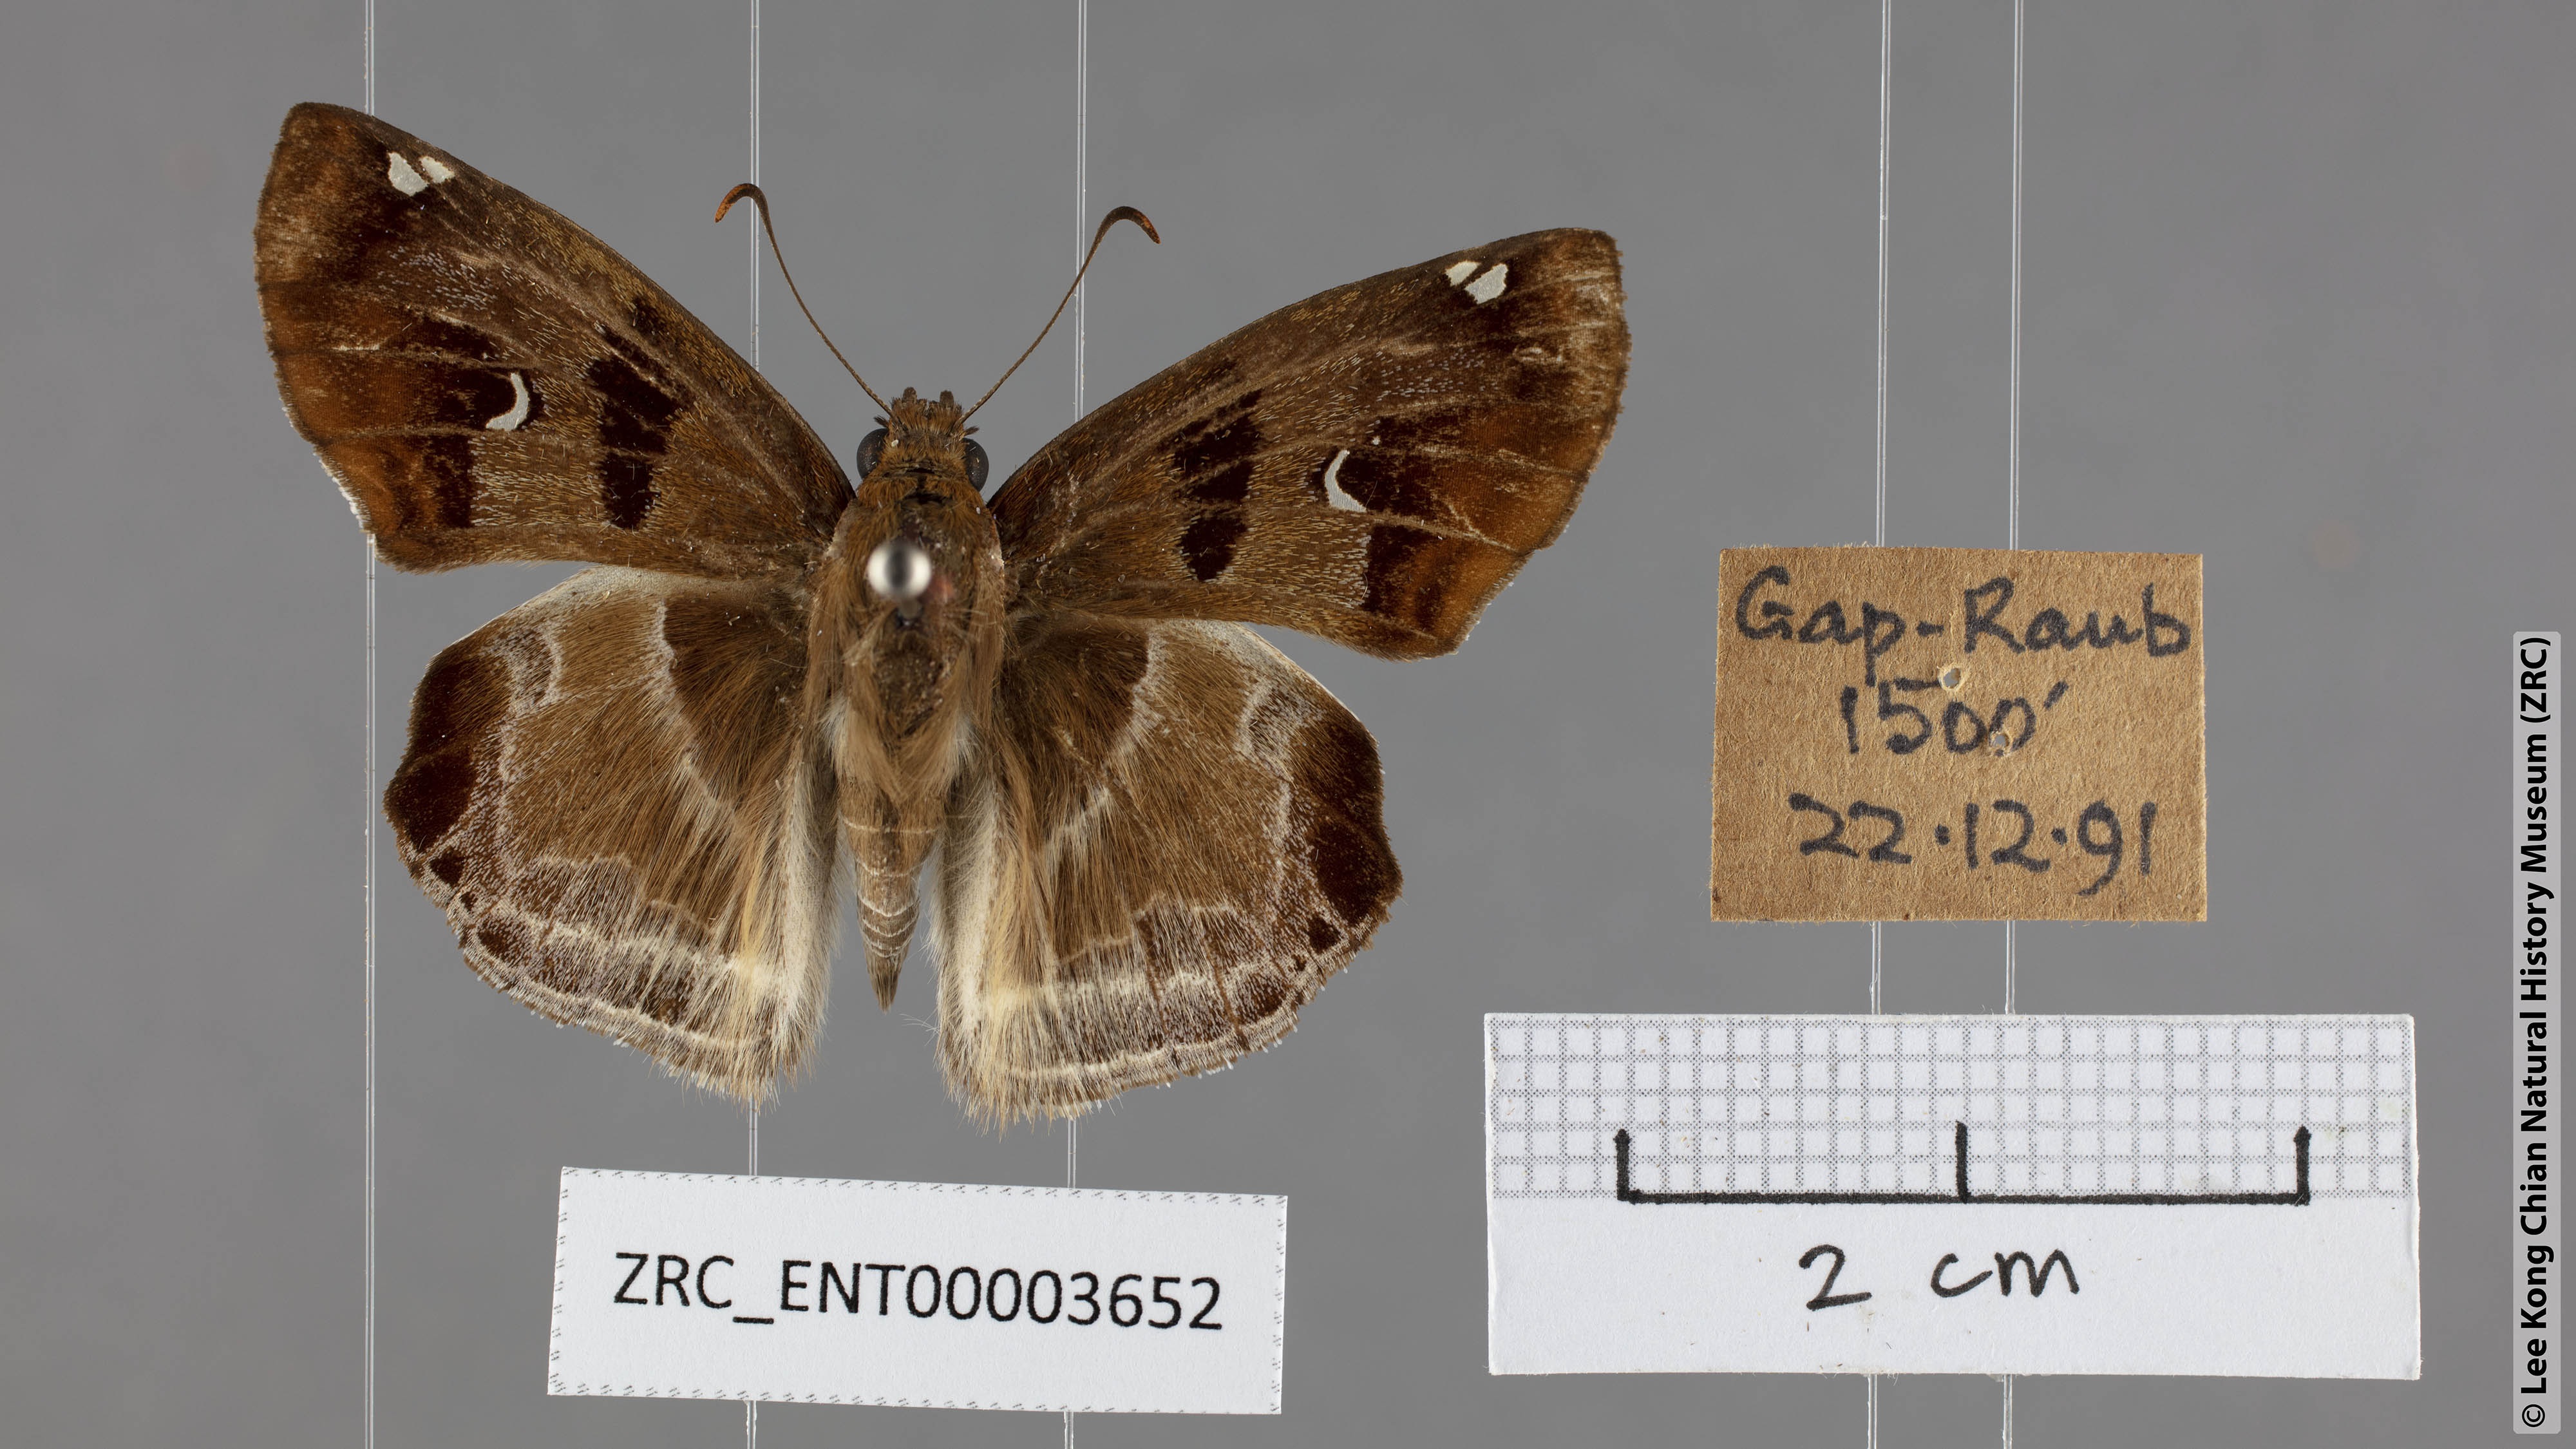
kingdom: Animalia
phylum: Arthropoda
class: Insecta
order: Lepidoptera
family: Hesperiidae
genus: Odontoptilum
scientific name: Odontoptilum angulata
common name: Chestnut banded angle
